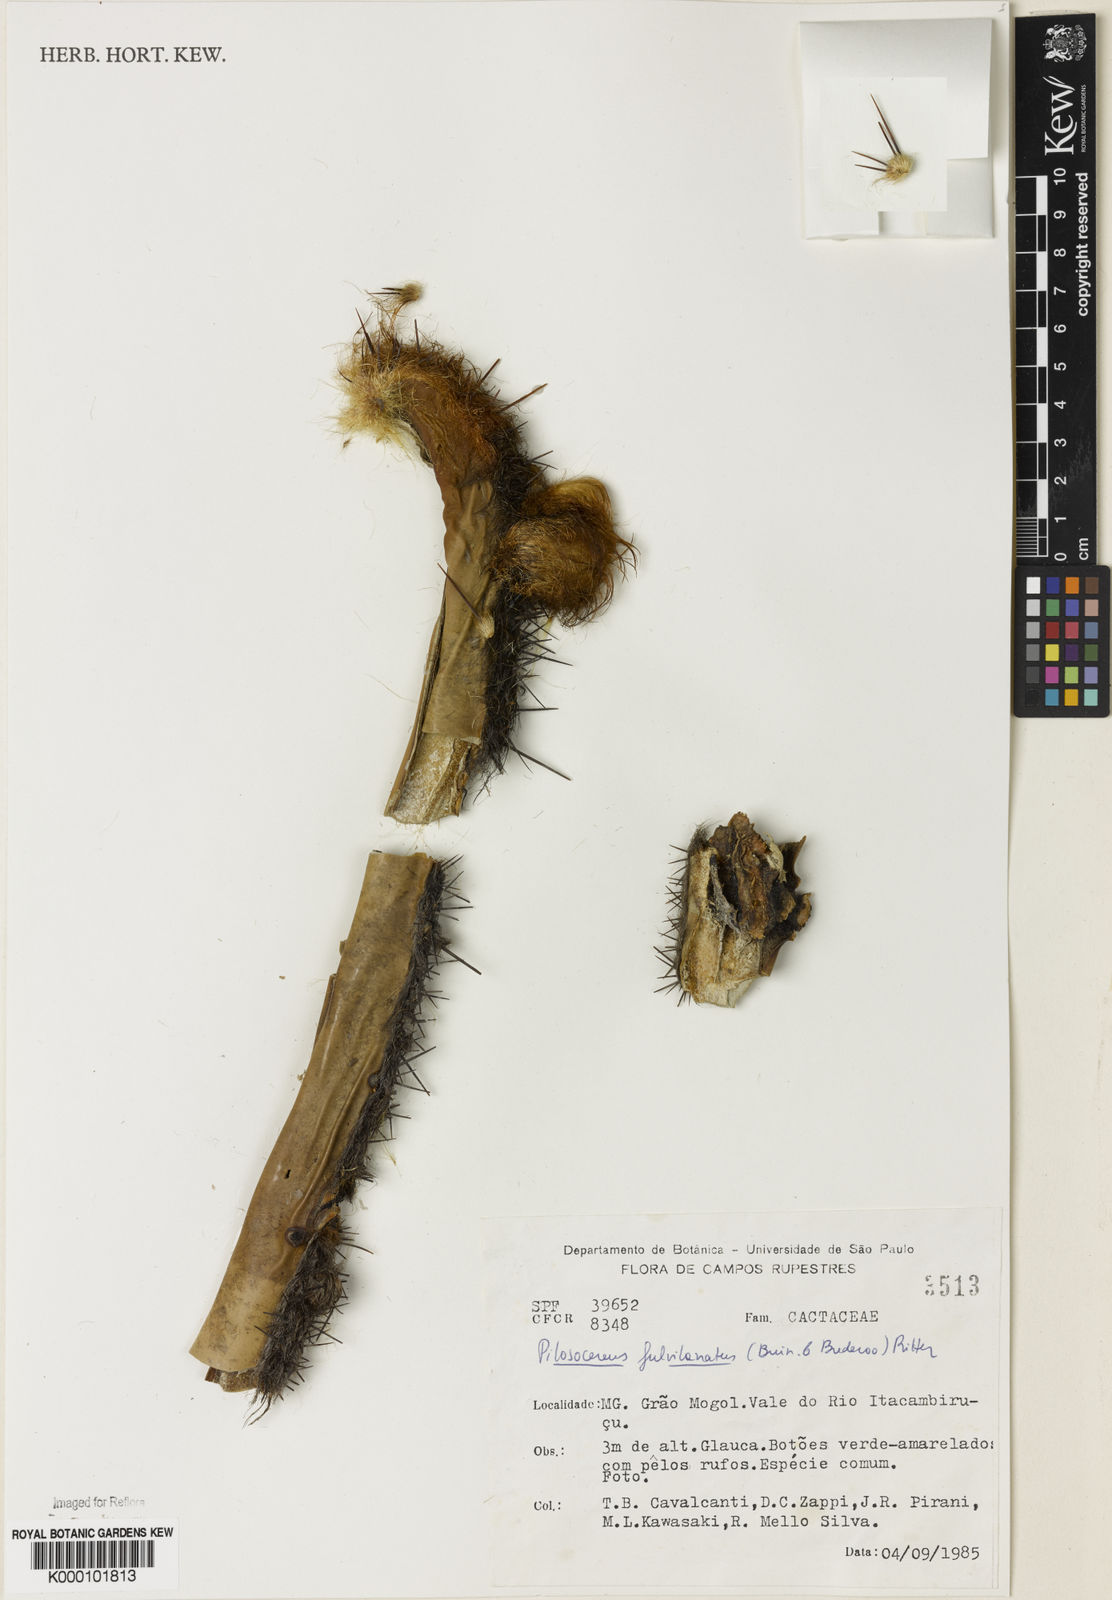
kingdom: Plantae
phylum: Tracheophyta
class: Magnoliopsida
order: Caryophyllales
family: Cactaceae
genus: Pilosocereus
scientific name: Pilosocereus fulvilanatus
